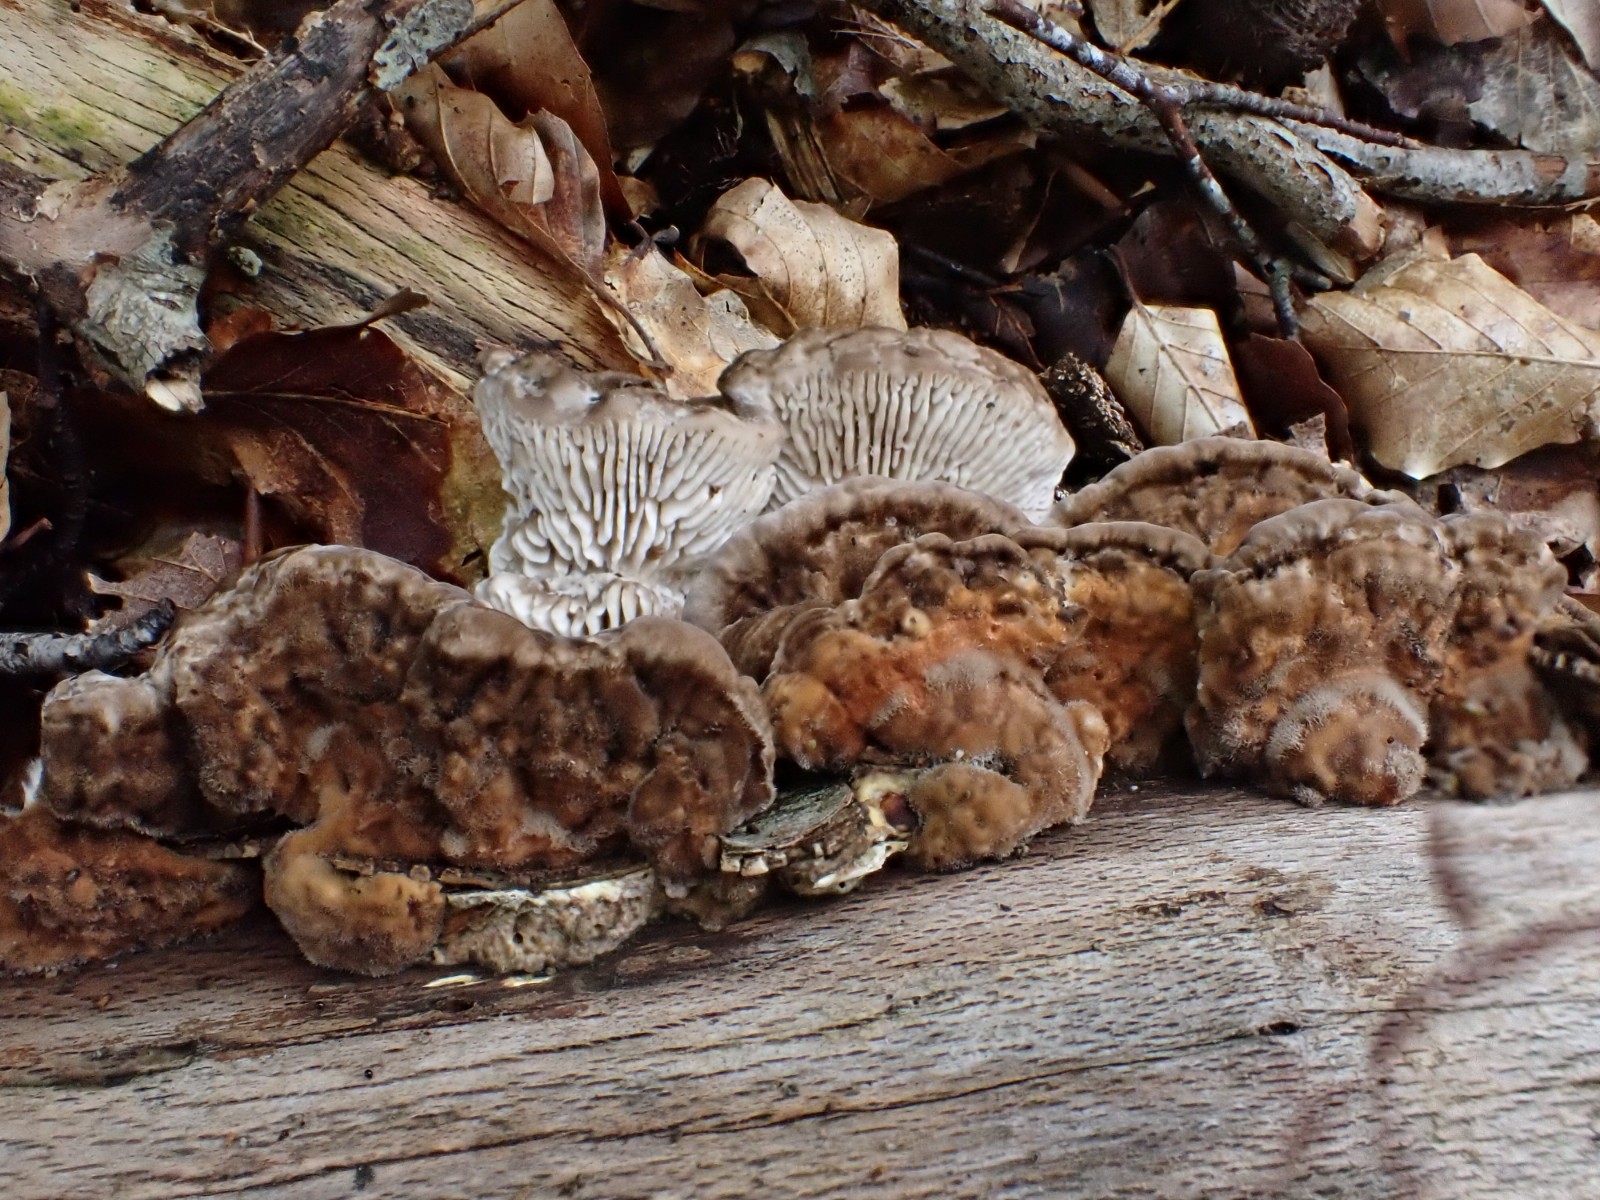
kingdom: Fungi
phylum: Basidiomycota
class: Agaricomycetes
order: Polyporales
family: Fomitopsidaceae
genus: Daedalea
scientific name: Daedalea quercina
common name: ege-labyrintsvamp
